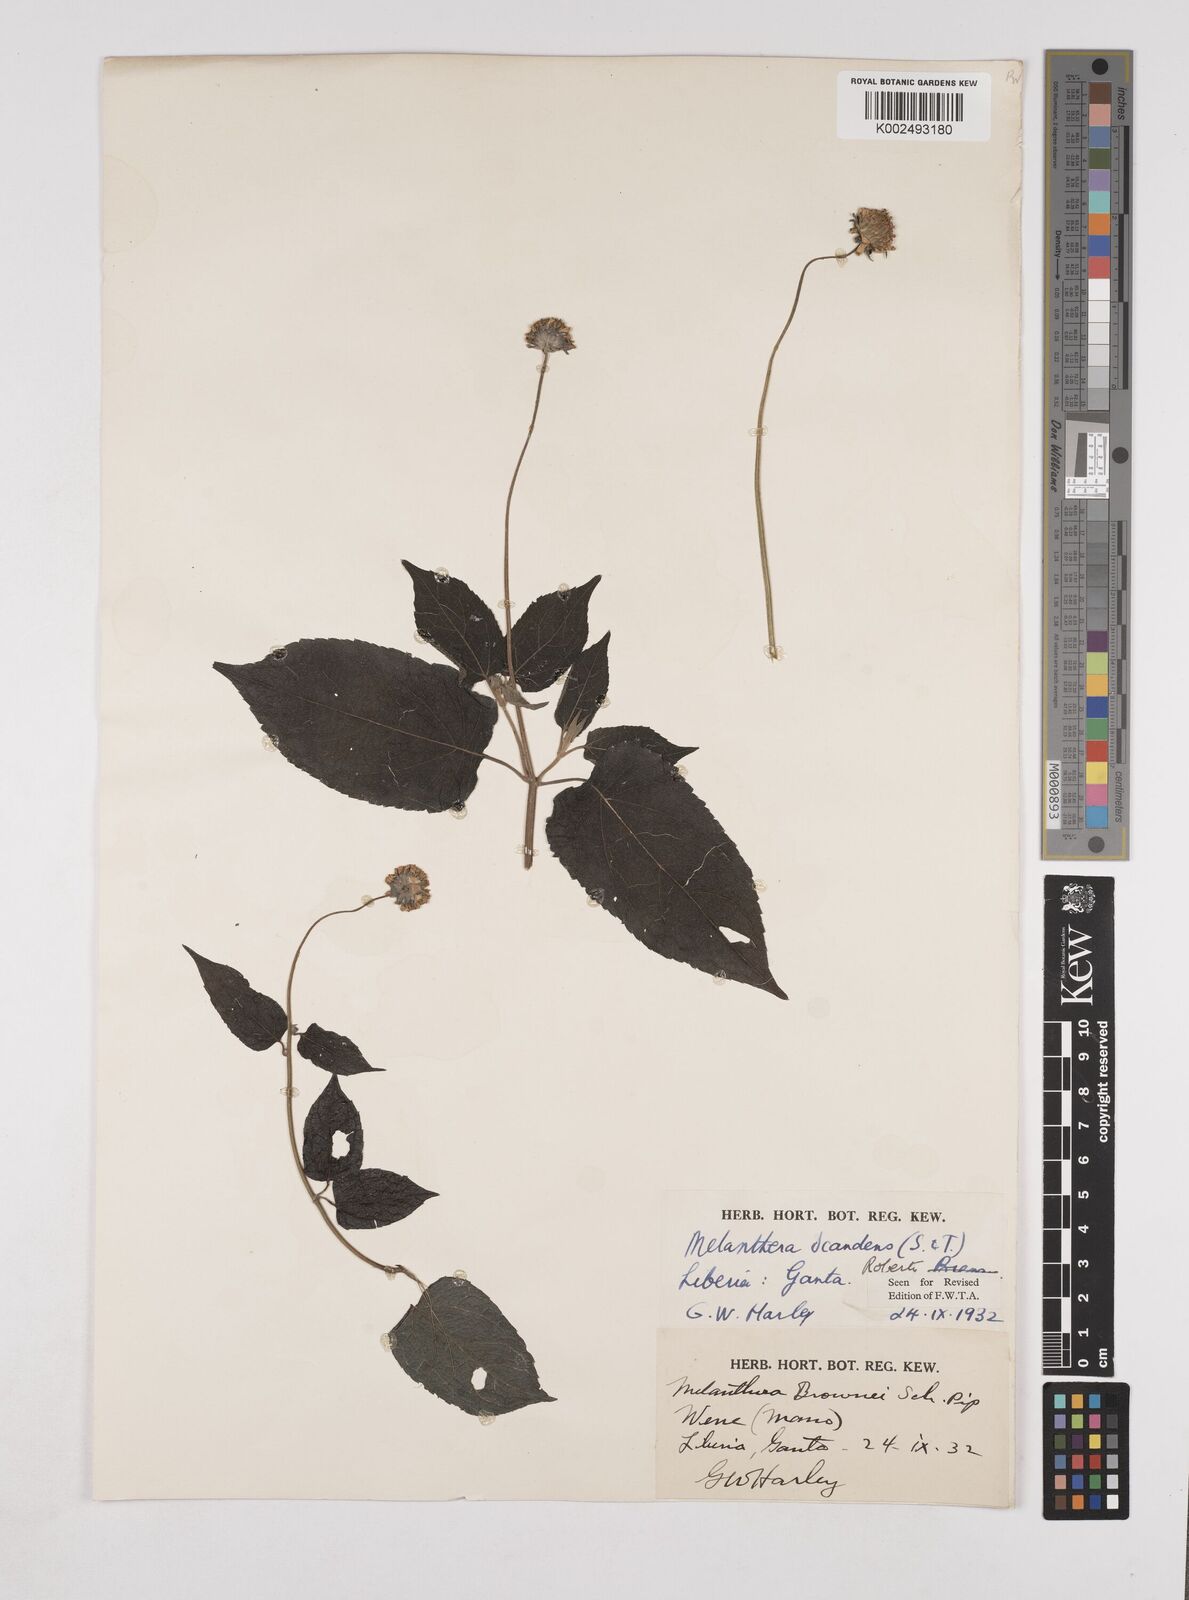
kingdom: Plantae
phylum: Tracheophyta
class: Magnoliopsida
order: Asterales
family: Asteraceae
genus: Lipotriche
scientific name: Lipotriche scandens
